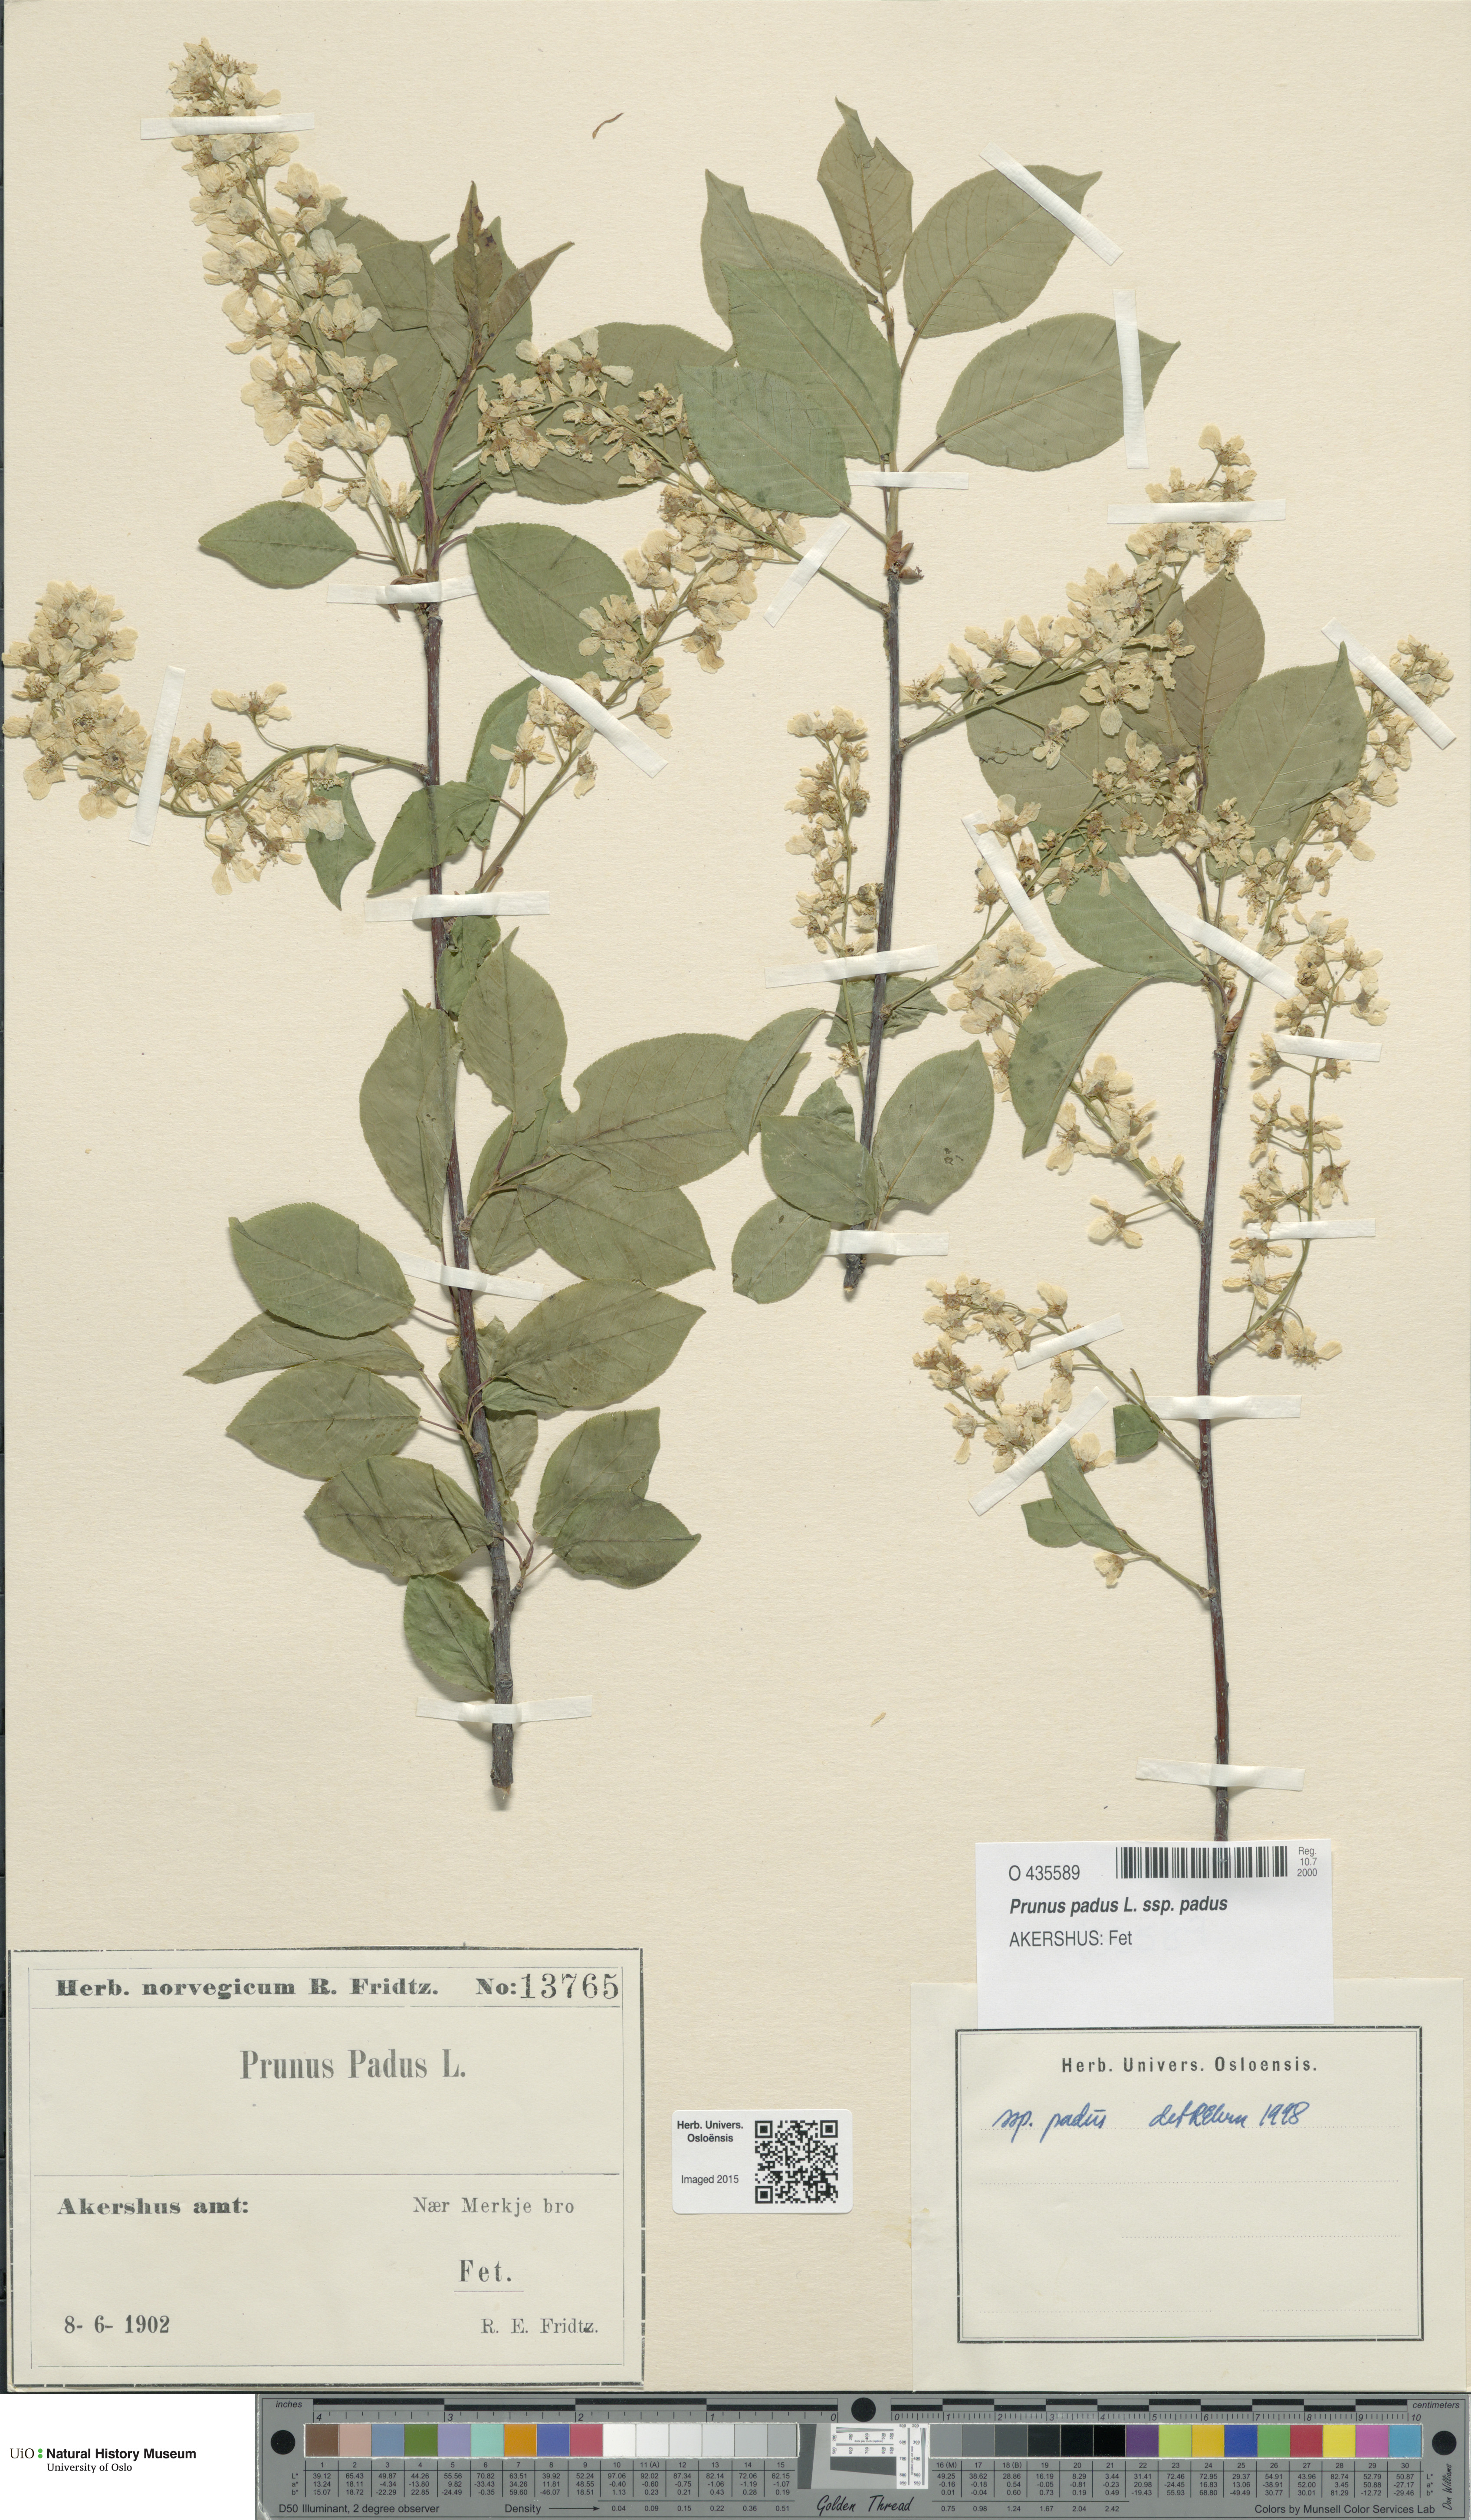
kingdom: Plantae
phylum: Tracheophyta
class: Magnoliopsida
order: Rosales
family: Rosaceae
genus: Prunus
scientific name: Prunus padus
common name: Bird cherry
